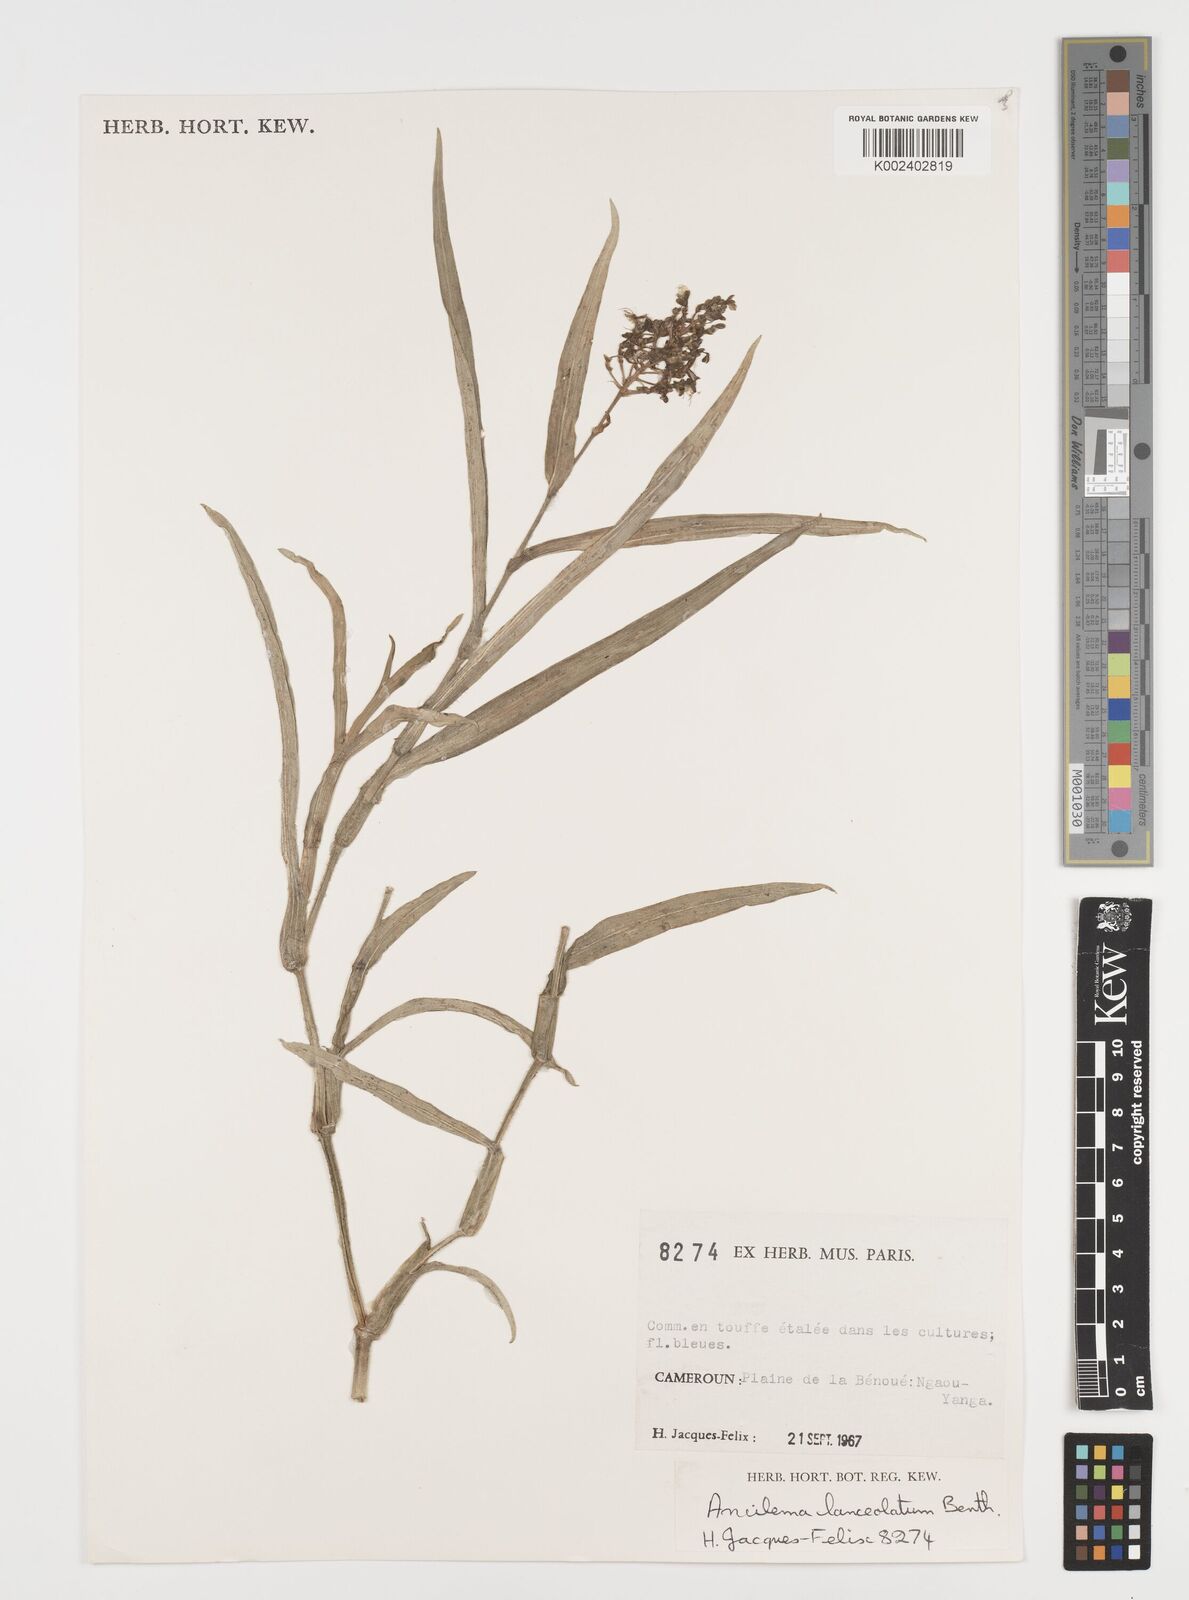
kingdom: Plantae
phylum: Tracheophyta
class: Liliopsida
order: Commelinales
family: Commelinaceae
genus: Aneilema
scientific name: Aneilema lanceolatum
